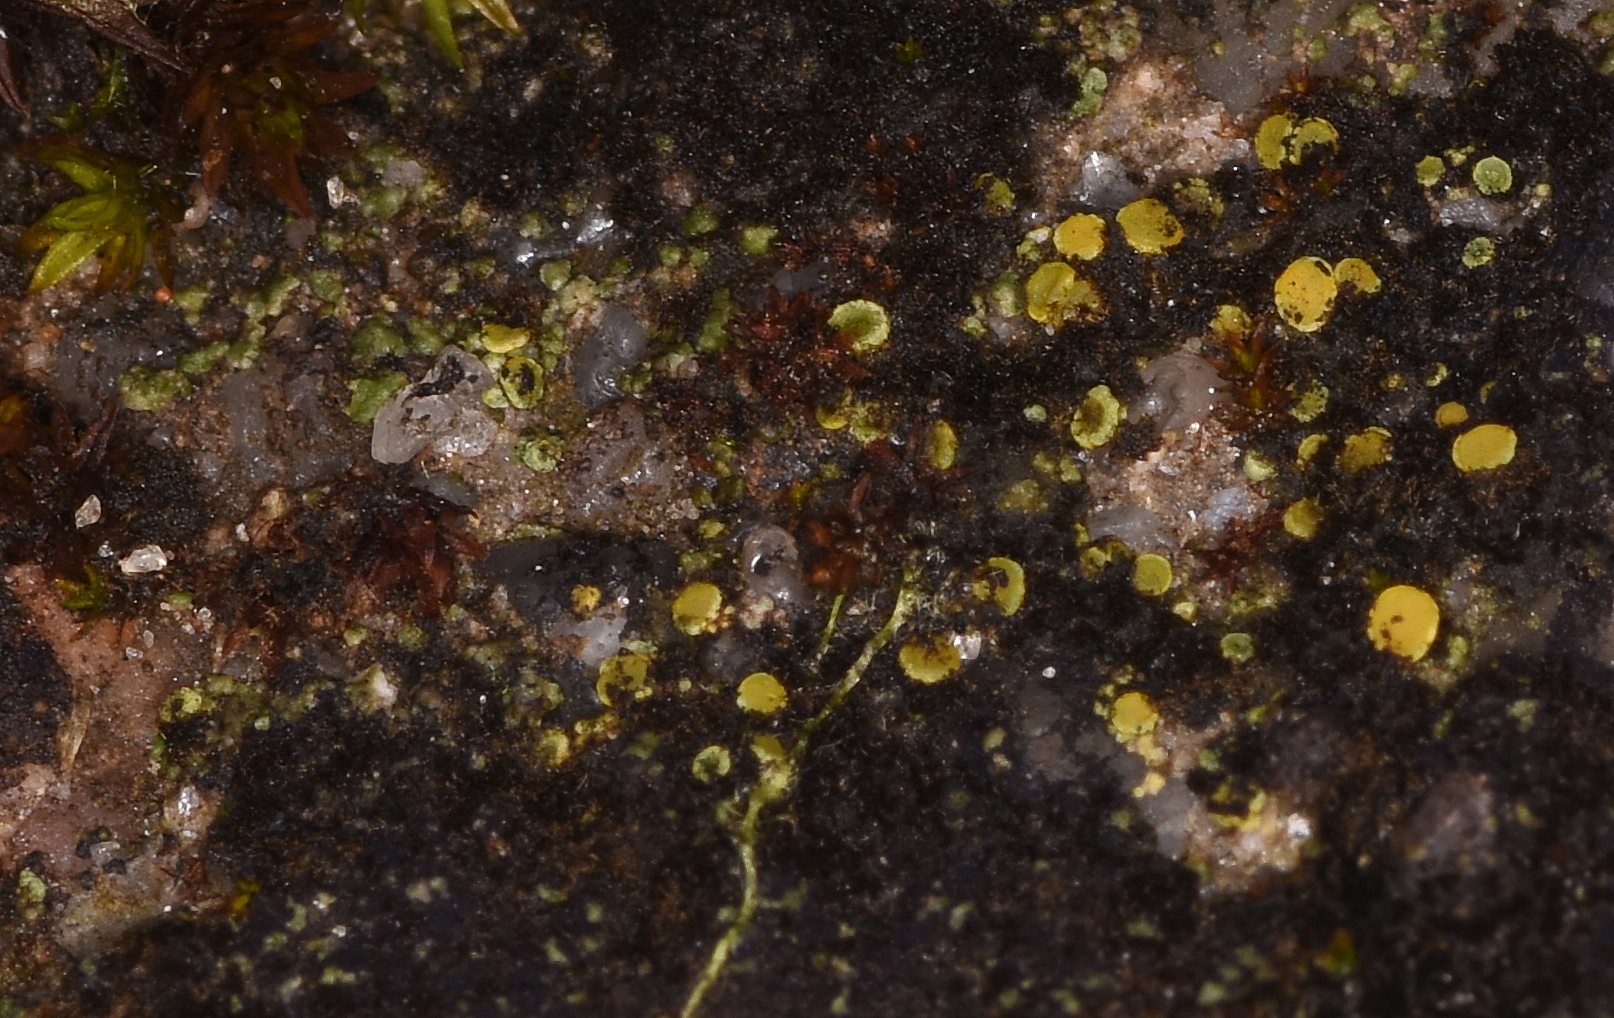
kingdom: Fungi
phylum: Ascomycota
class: Candelariomycetes
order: Candelariales
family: Candelariaceae
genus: Candelariella
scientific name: Candelariella aurella
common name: liden æggeblommelav
